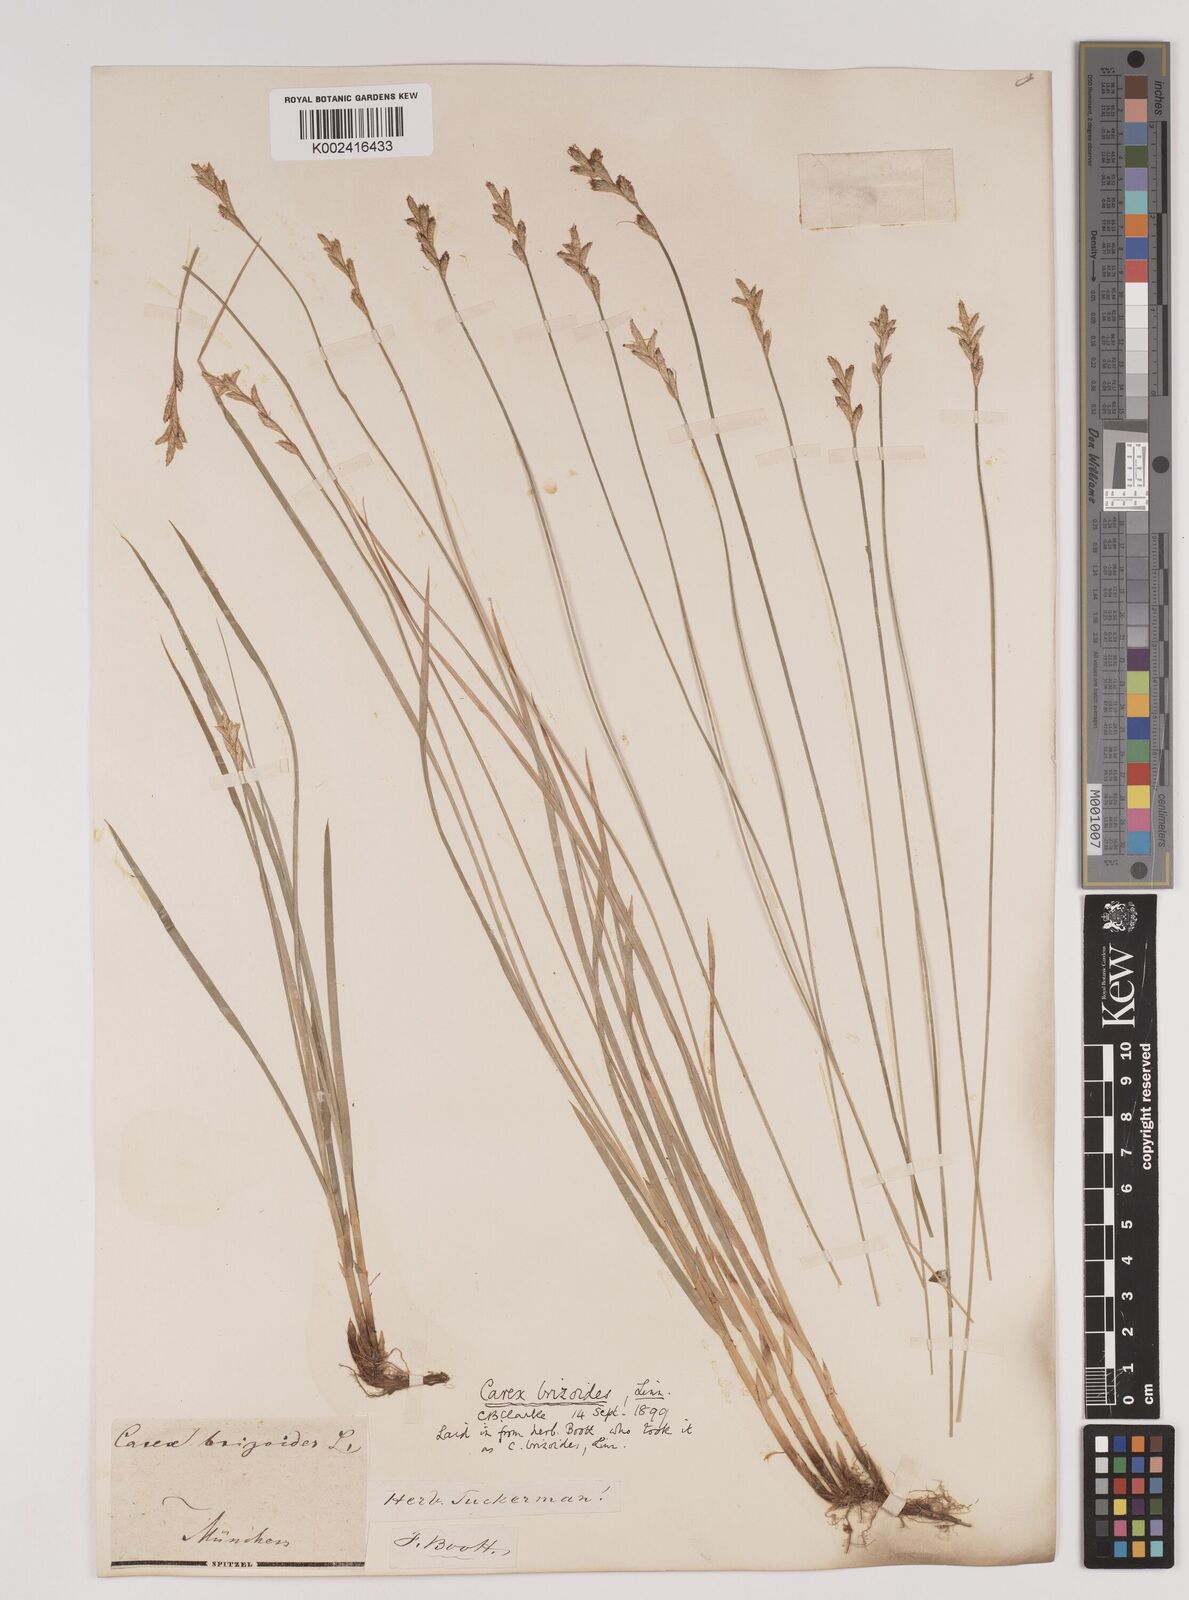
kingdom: Plantae
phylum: Tracheophyta
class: Liliopsida
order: Poales
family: Cyperaceae
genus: Carex
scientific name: Carex brizoides
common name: Quaking-grass sedge
